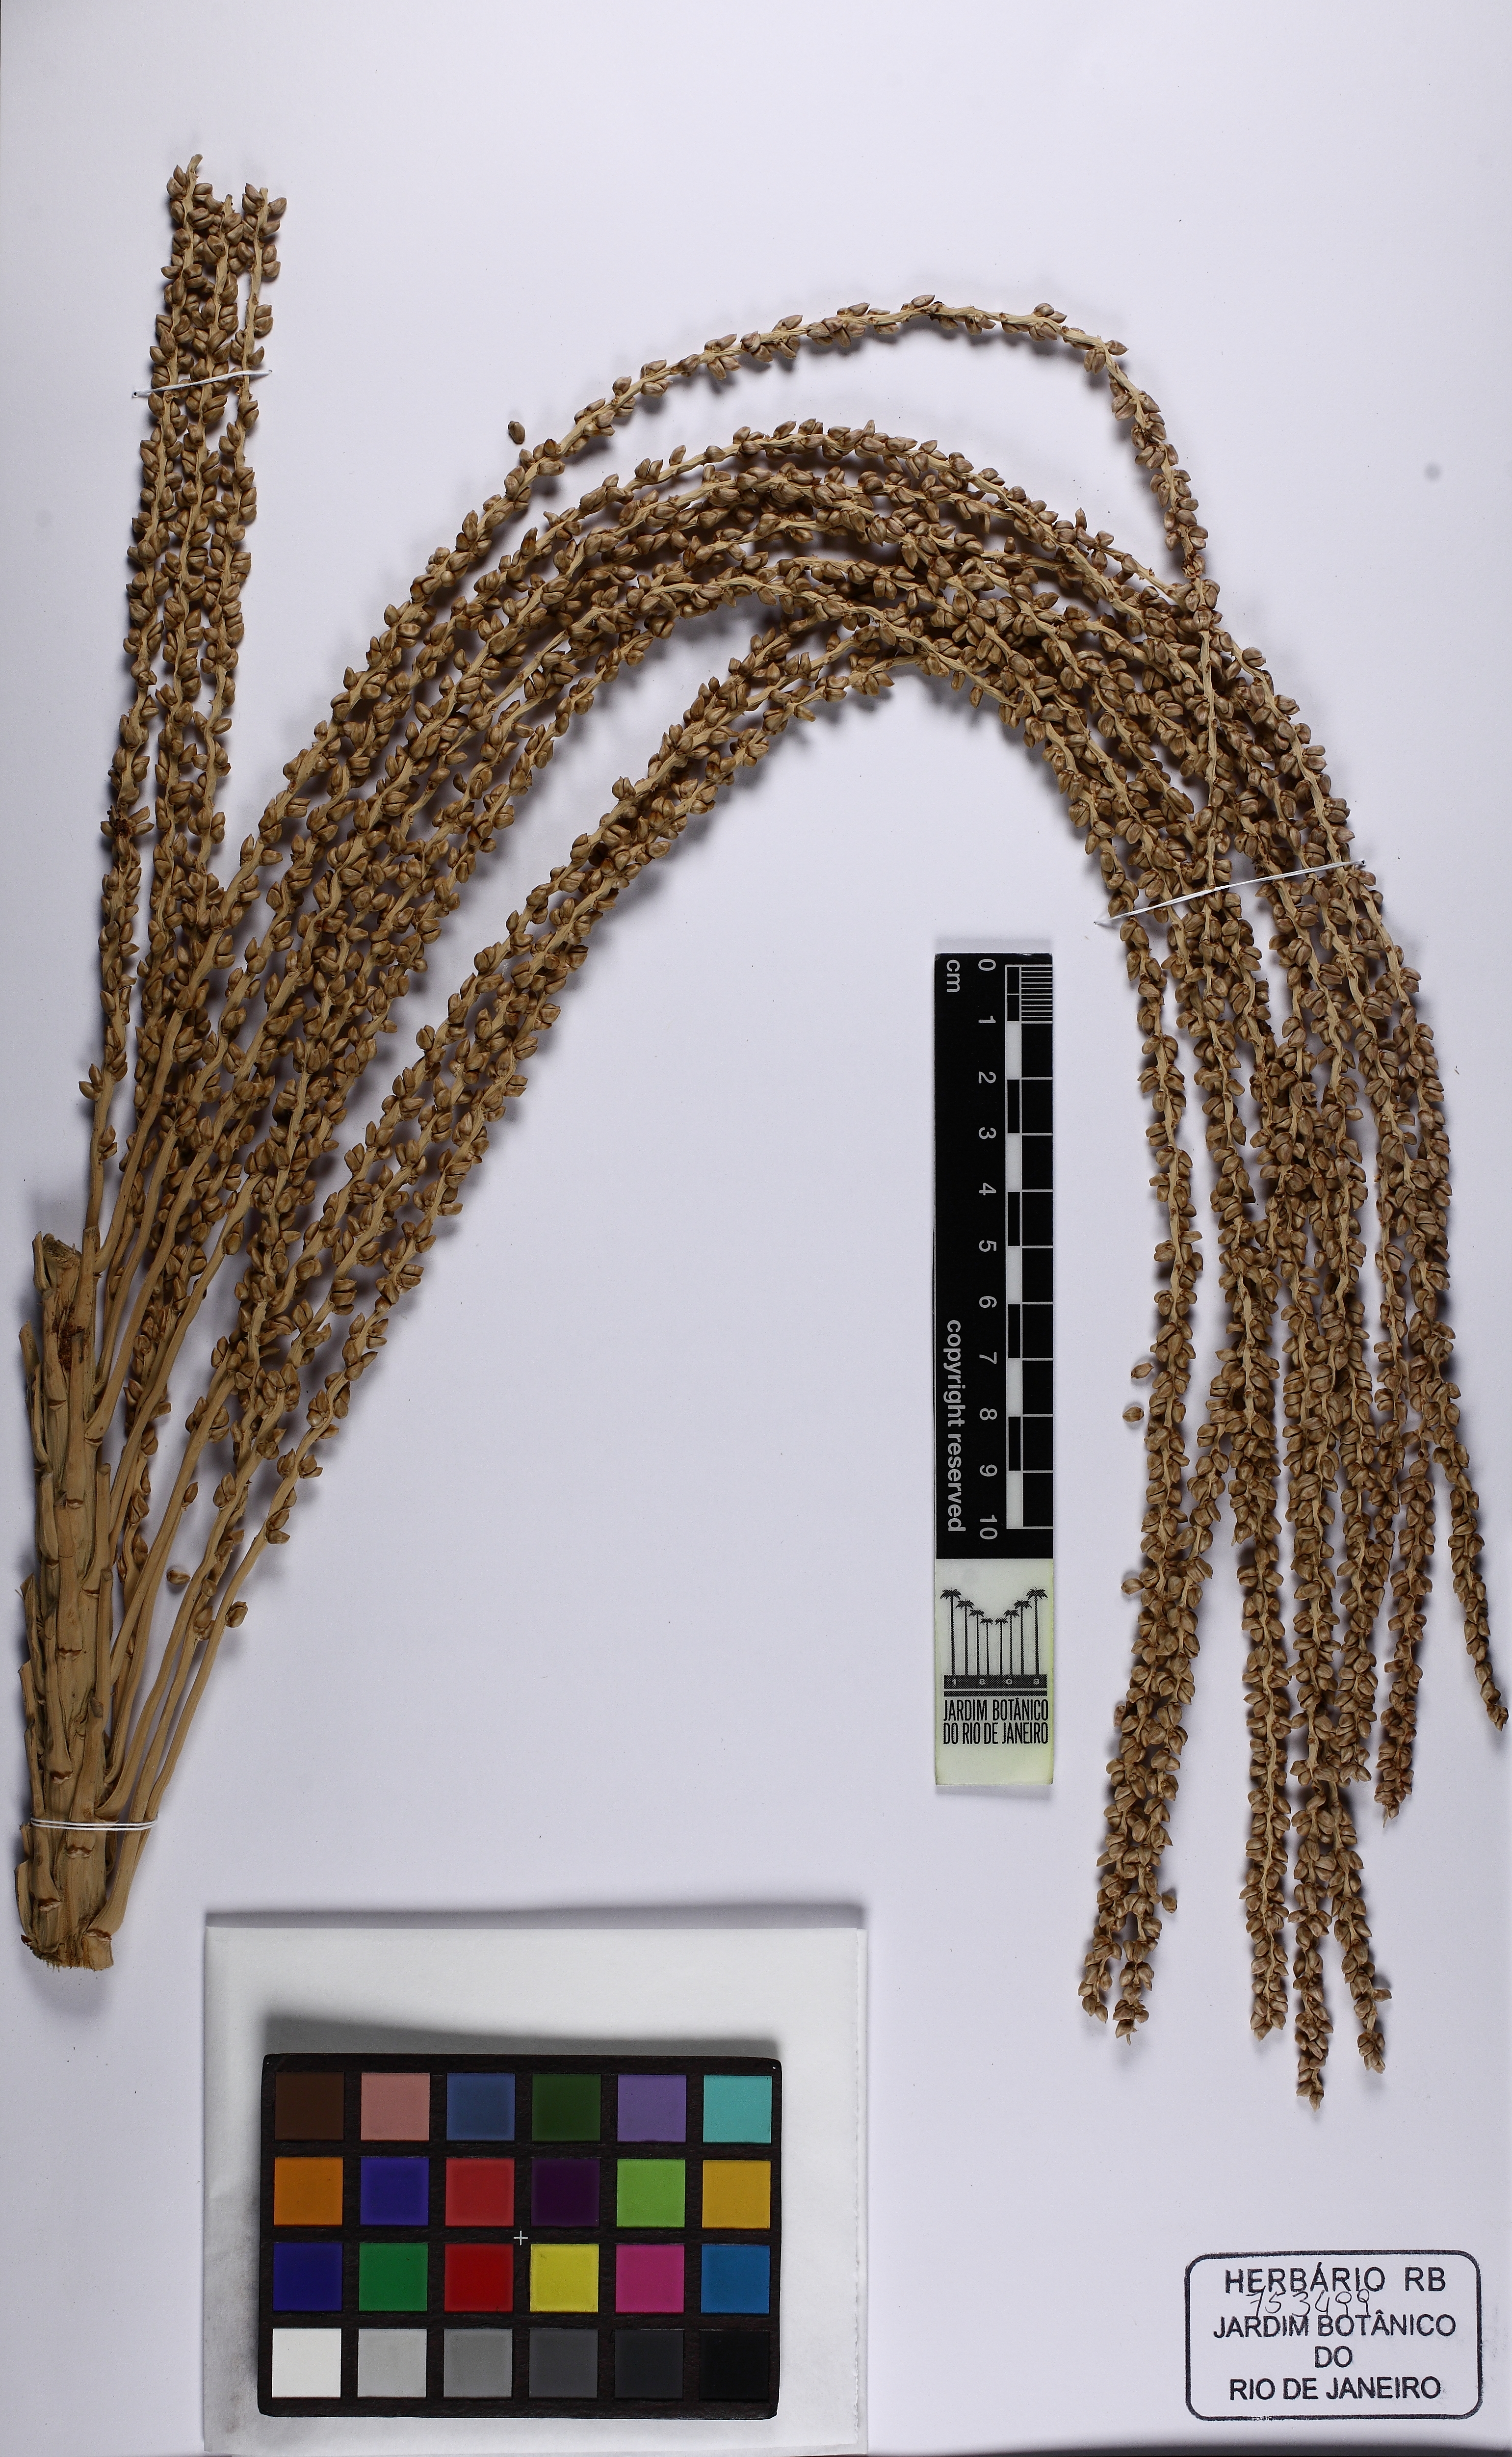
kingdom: Plantae
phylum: Tracheophyta
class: Liliopsida
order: Arecales
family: Arecaceae
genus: Euterpe
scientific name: Euterpe edulis
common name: Assai palm
